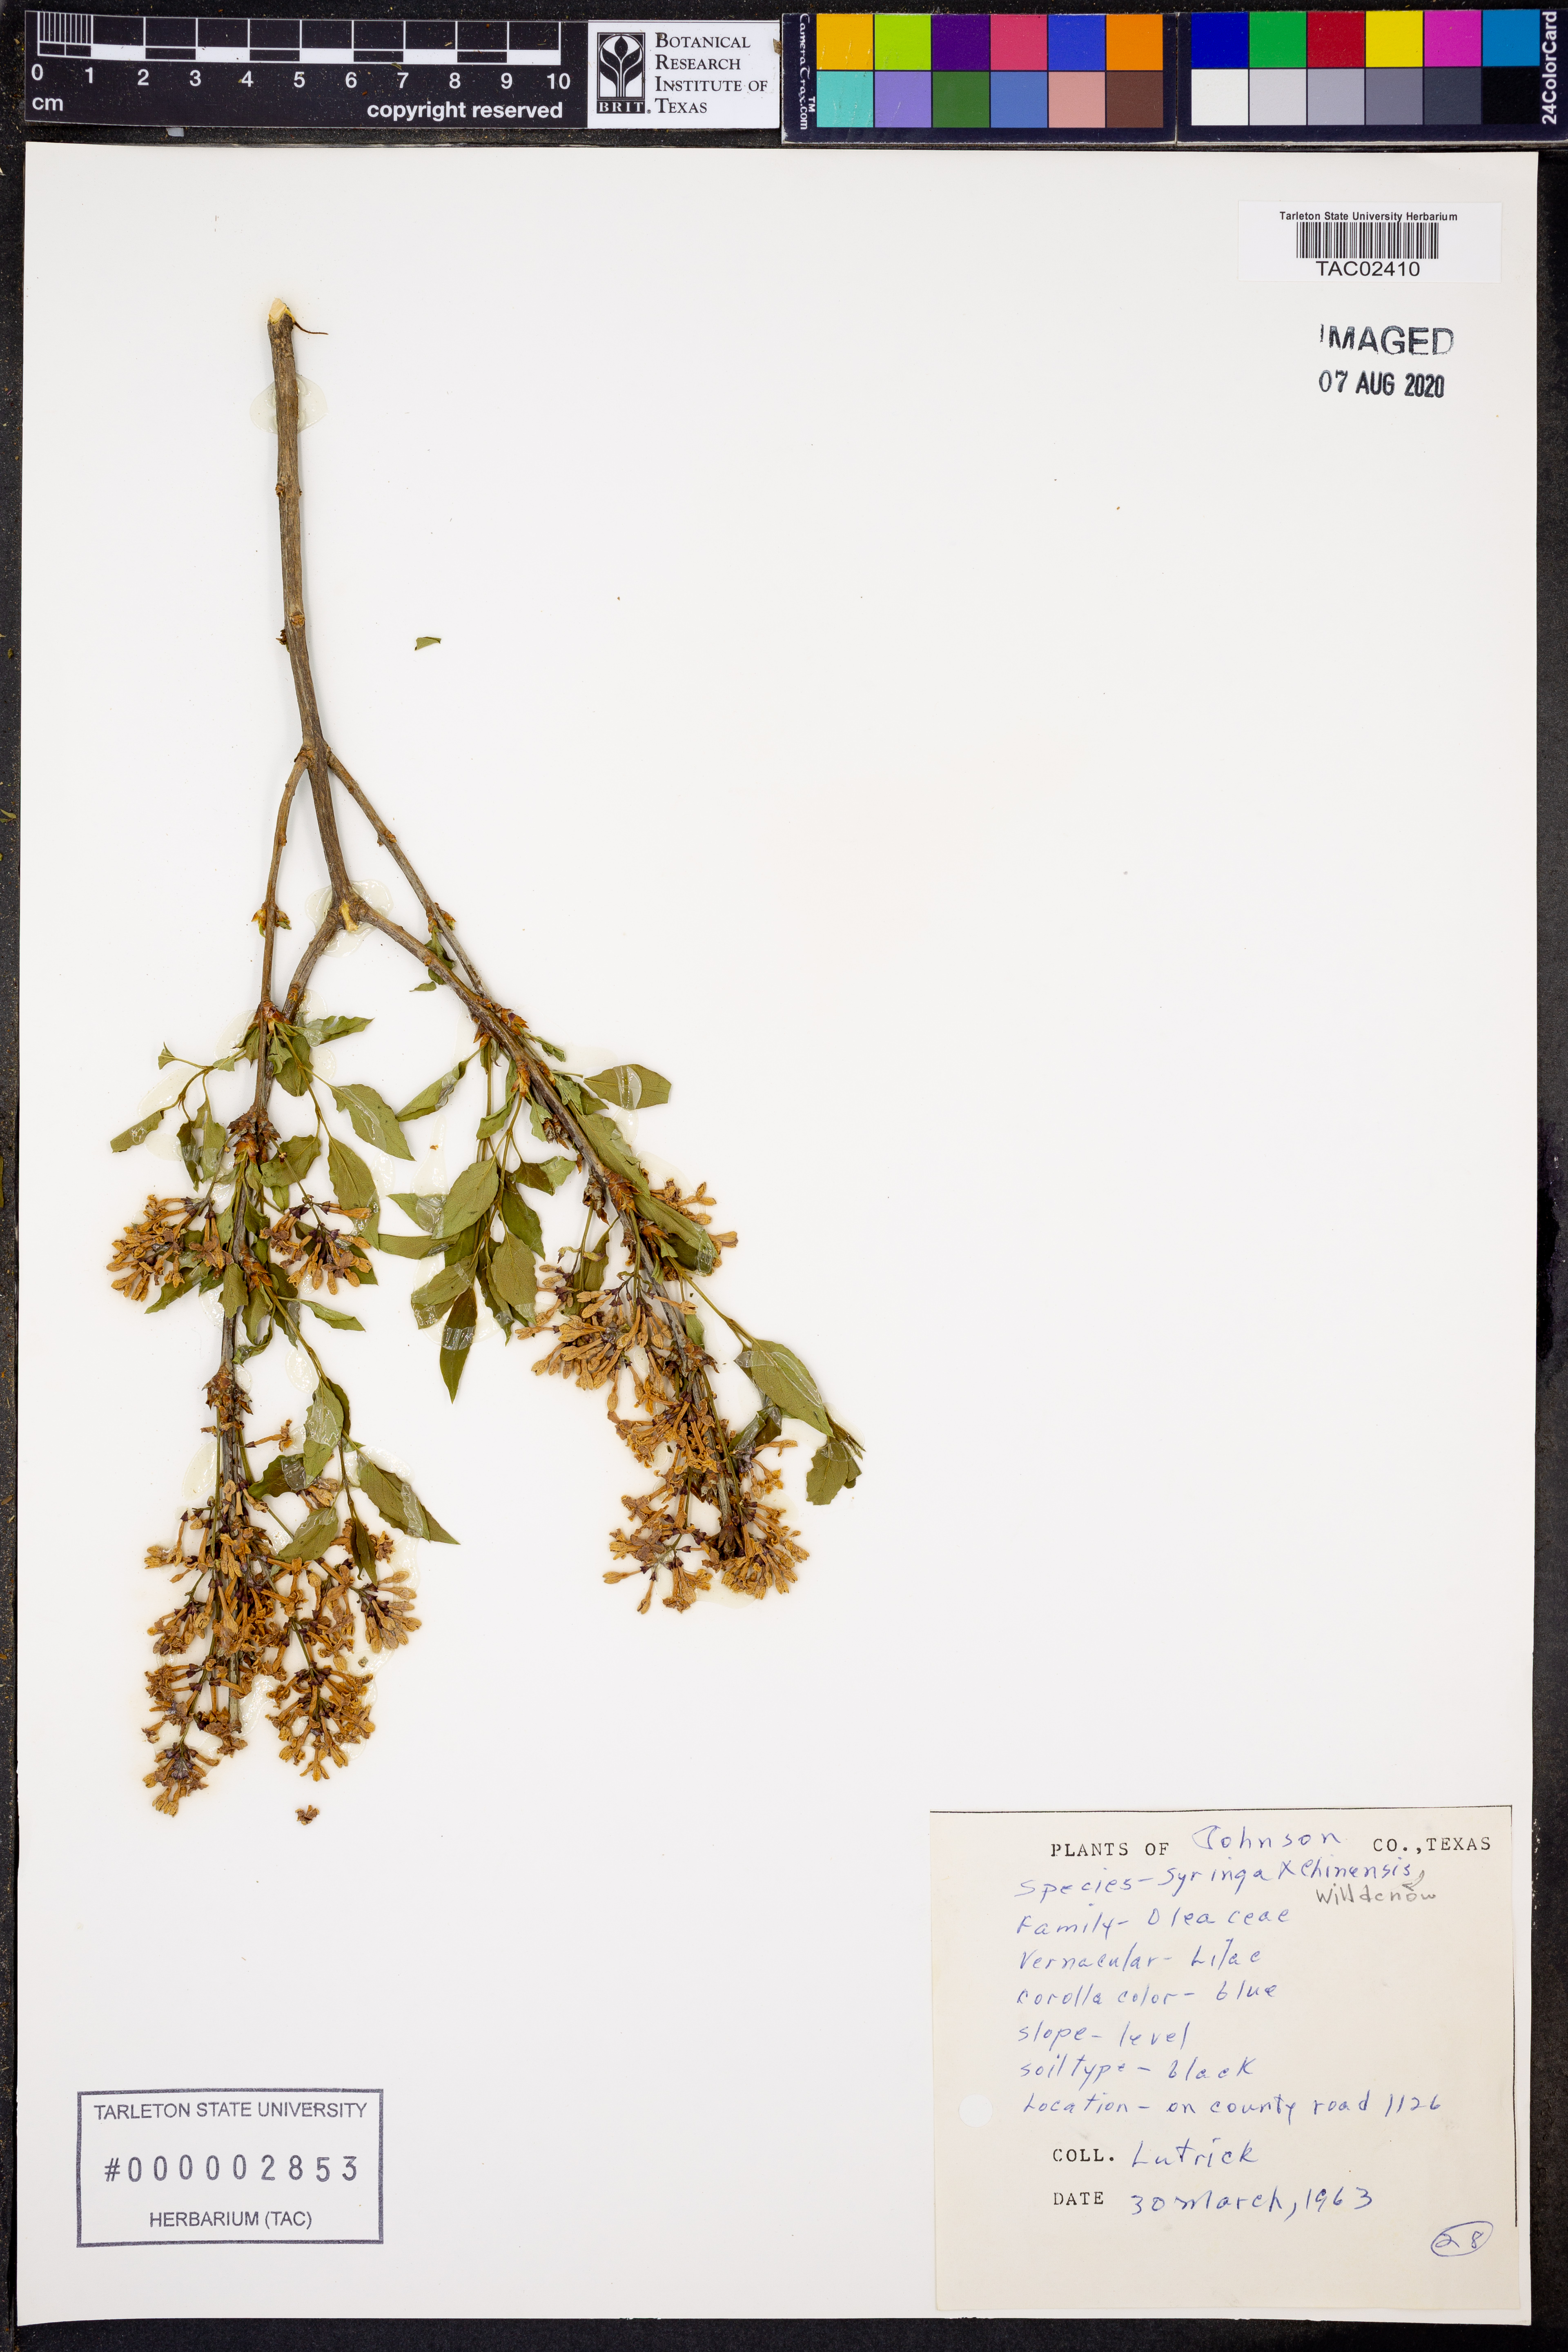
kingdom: Plantae
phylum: Tracheophyta
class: Magnoliopsida
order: Lamiales
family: Oleaceae
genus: Syringa
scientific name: Syringa chinensis
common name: Chinese lilac
